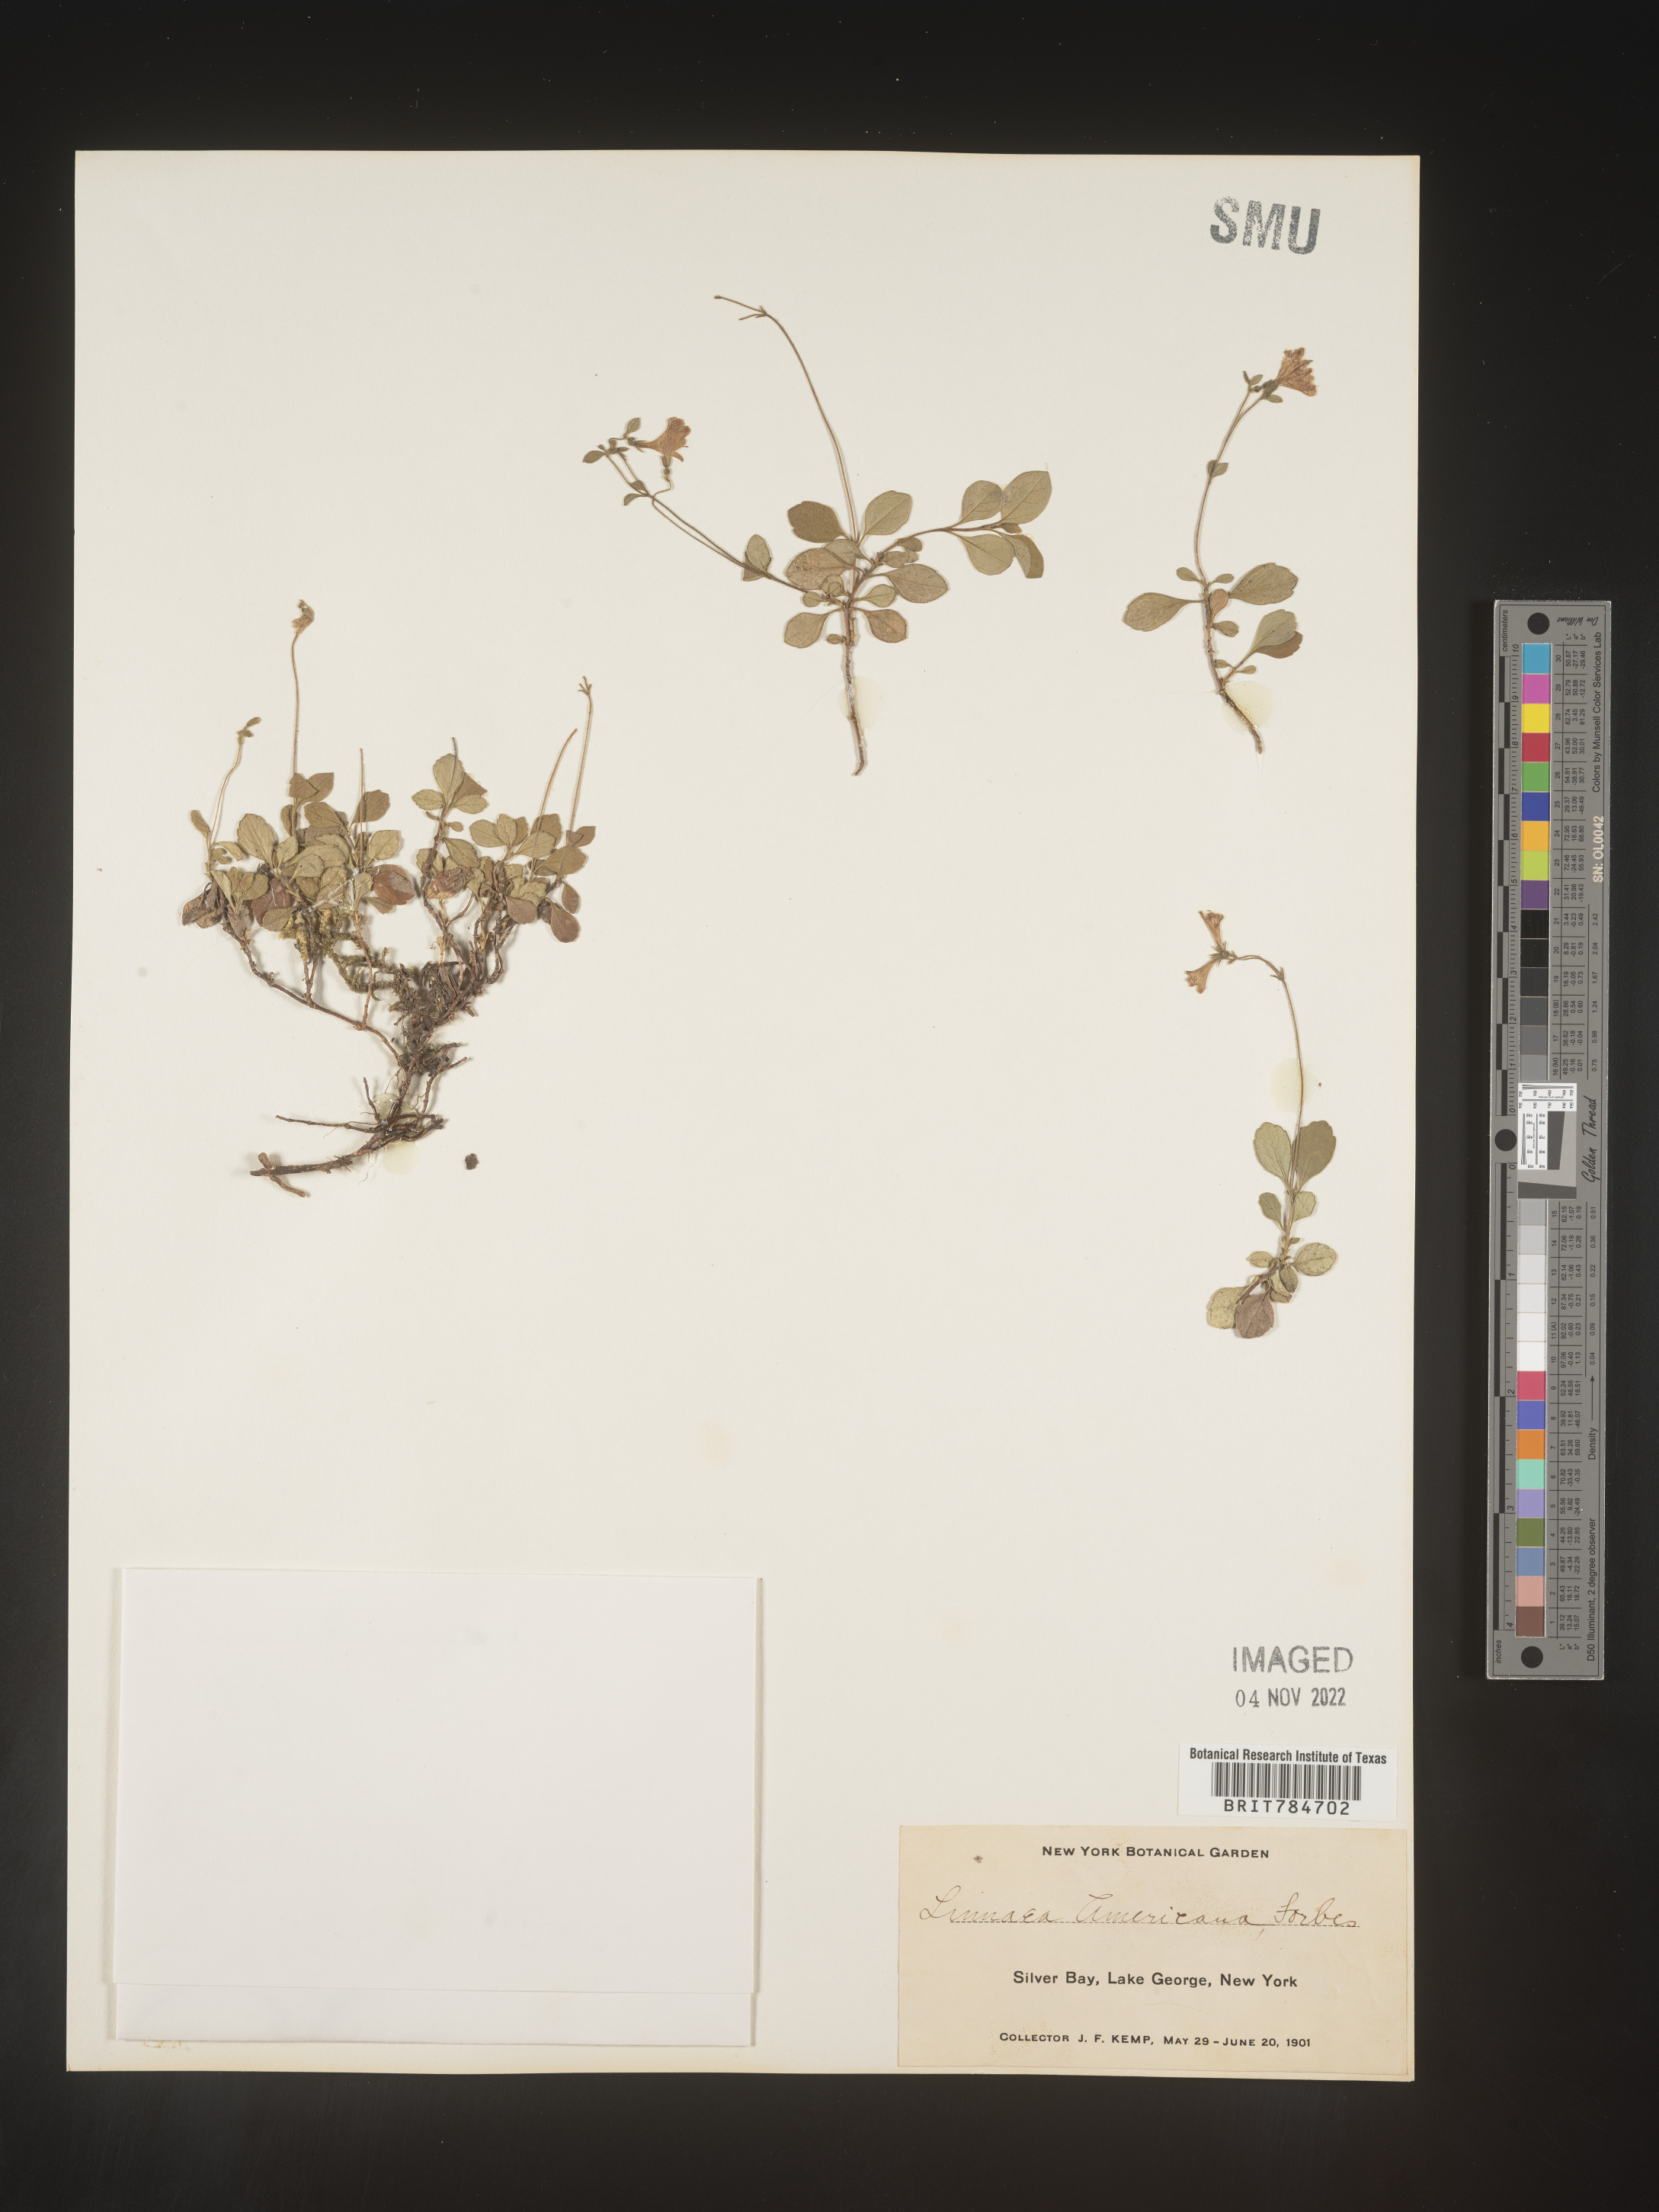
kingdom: Plantae
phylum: Tracheophyta
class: Magnoliopsida
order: Dipsacales
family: Caprifoliaceae
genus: Linnaea
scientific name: Linnaea borealis
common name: Twinflower
